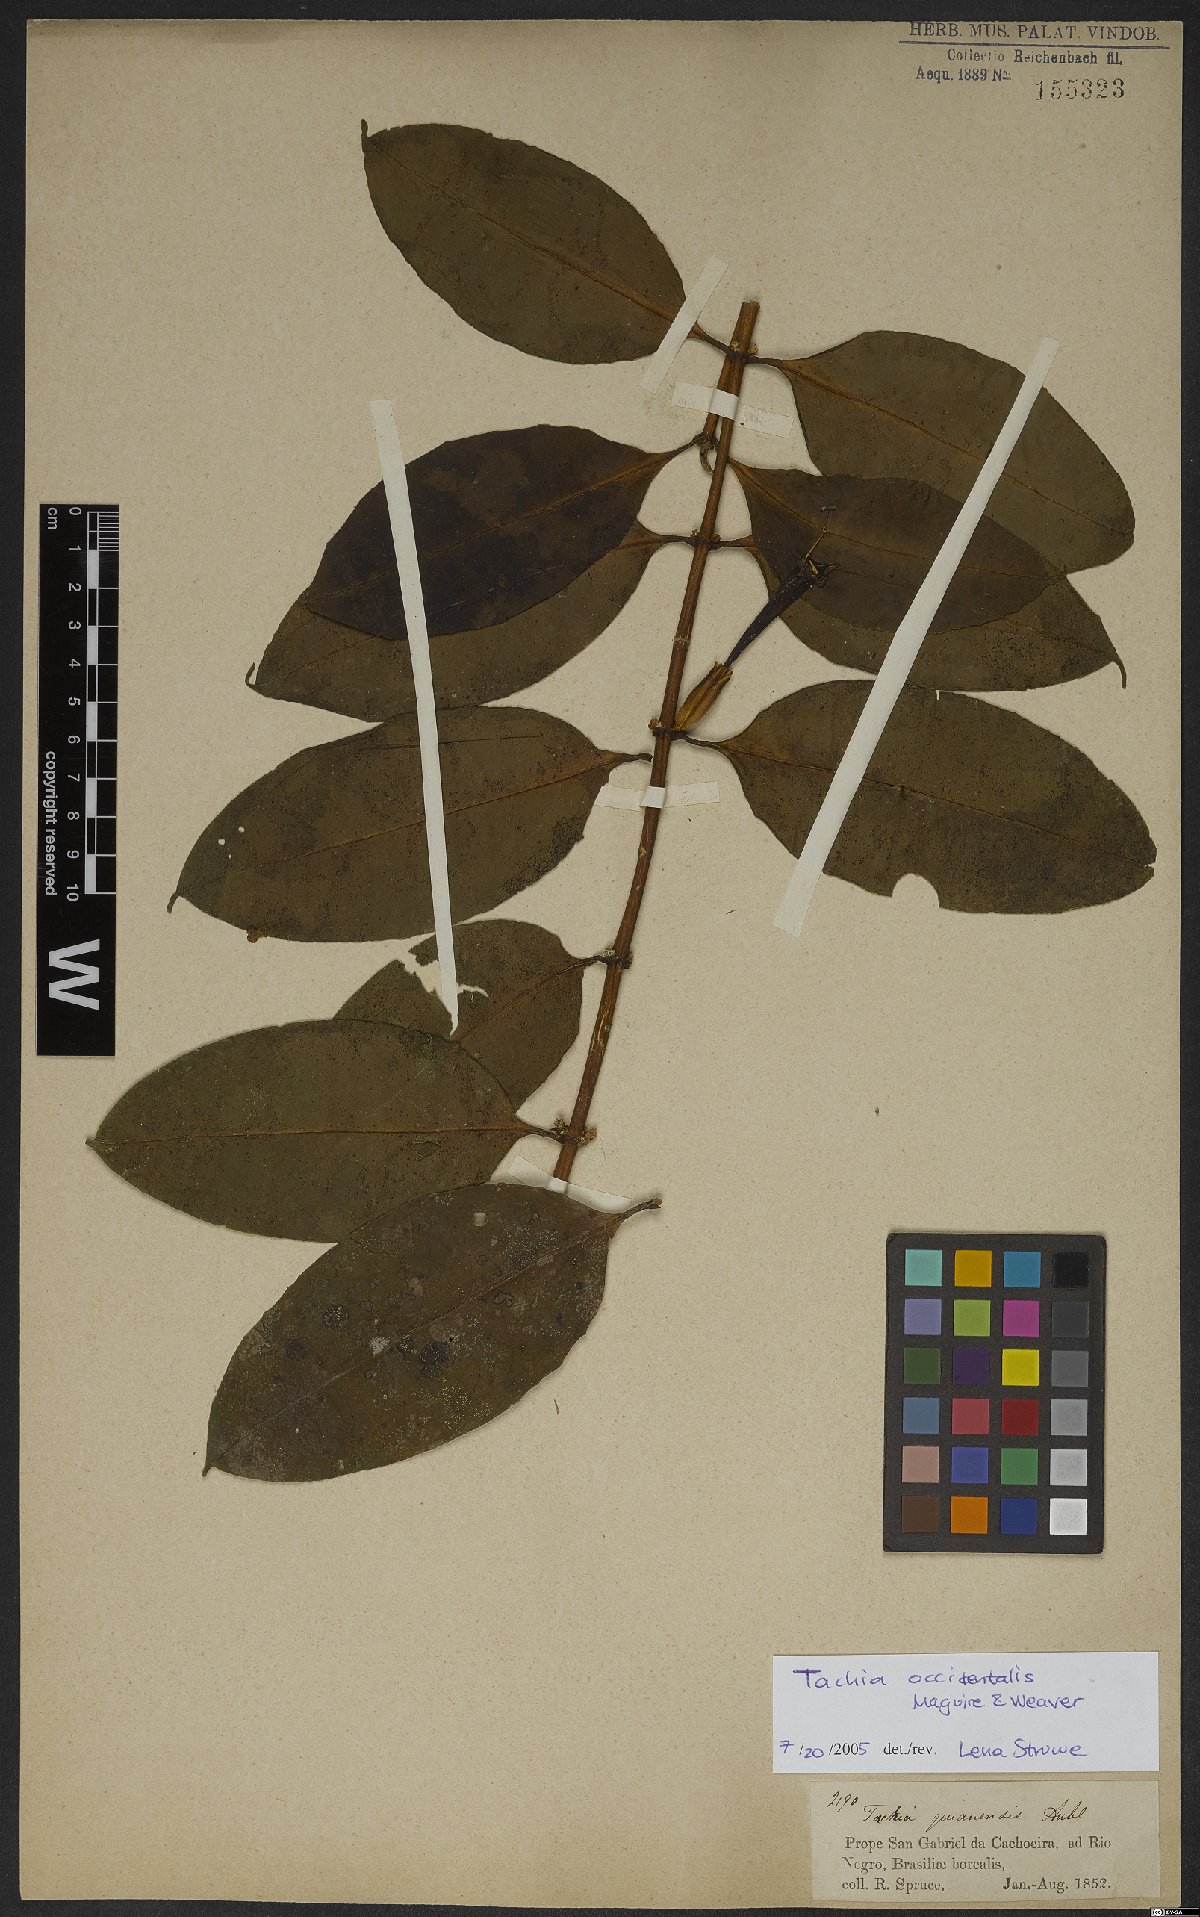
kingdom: Plantae
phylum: Tracheophyta
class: Magnoliopsida
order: Gentianales
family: Gentianaceae
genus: Tachia
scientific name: Tachia occidentalis
